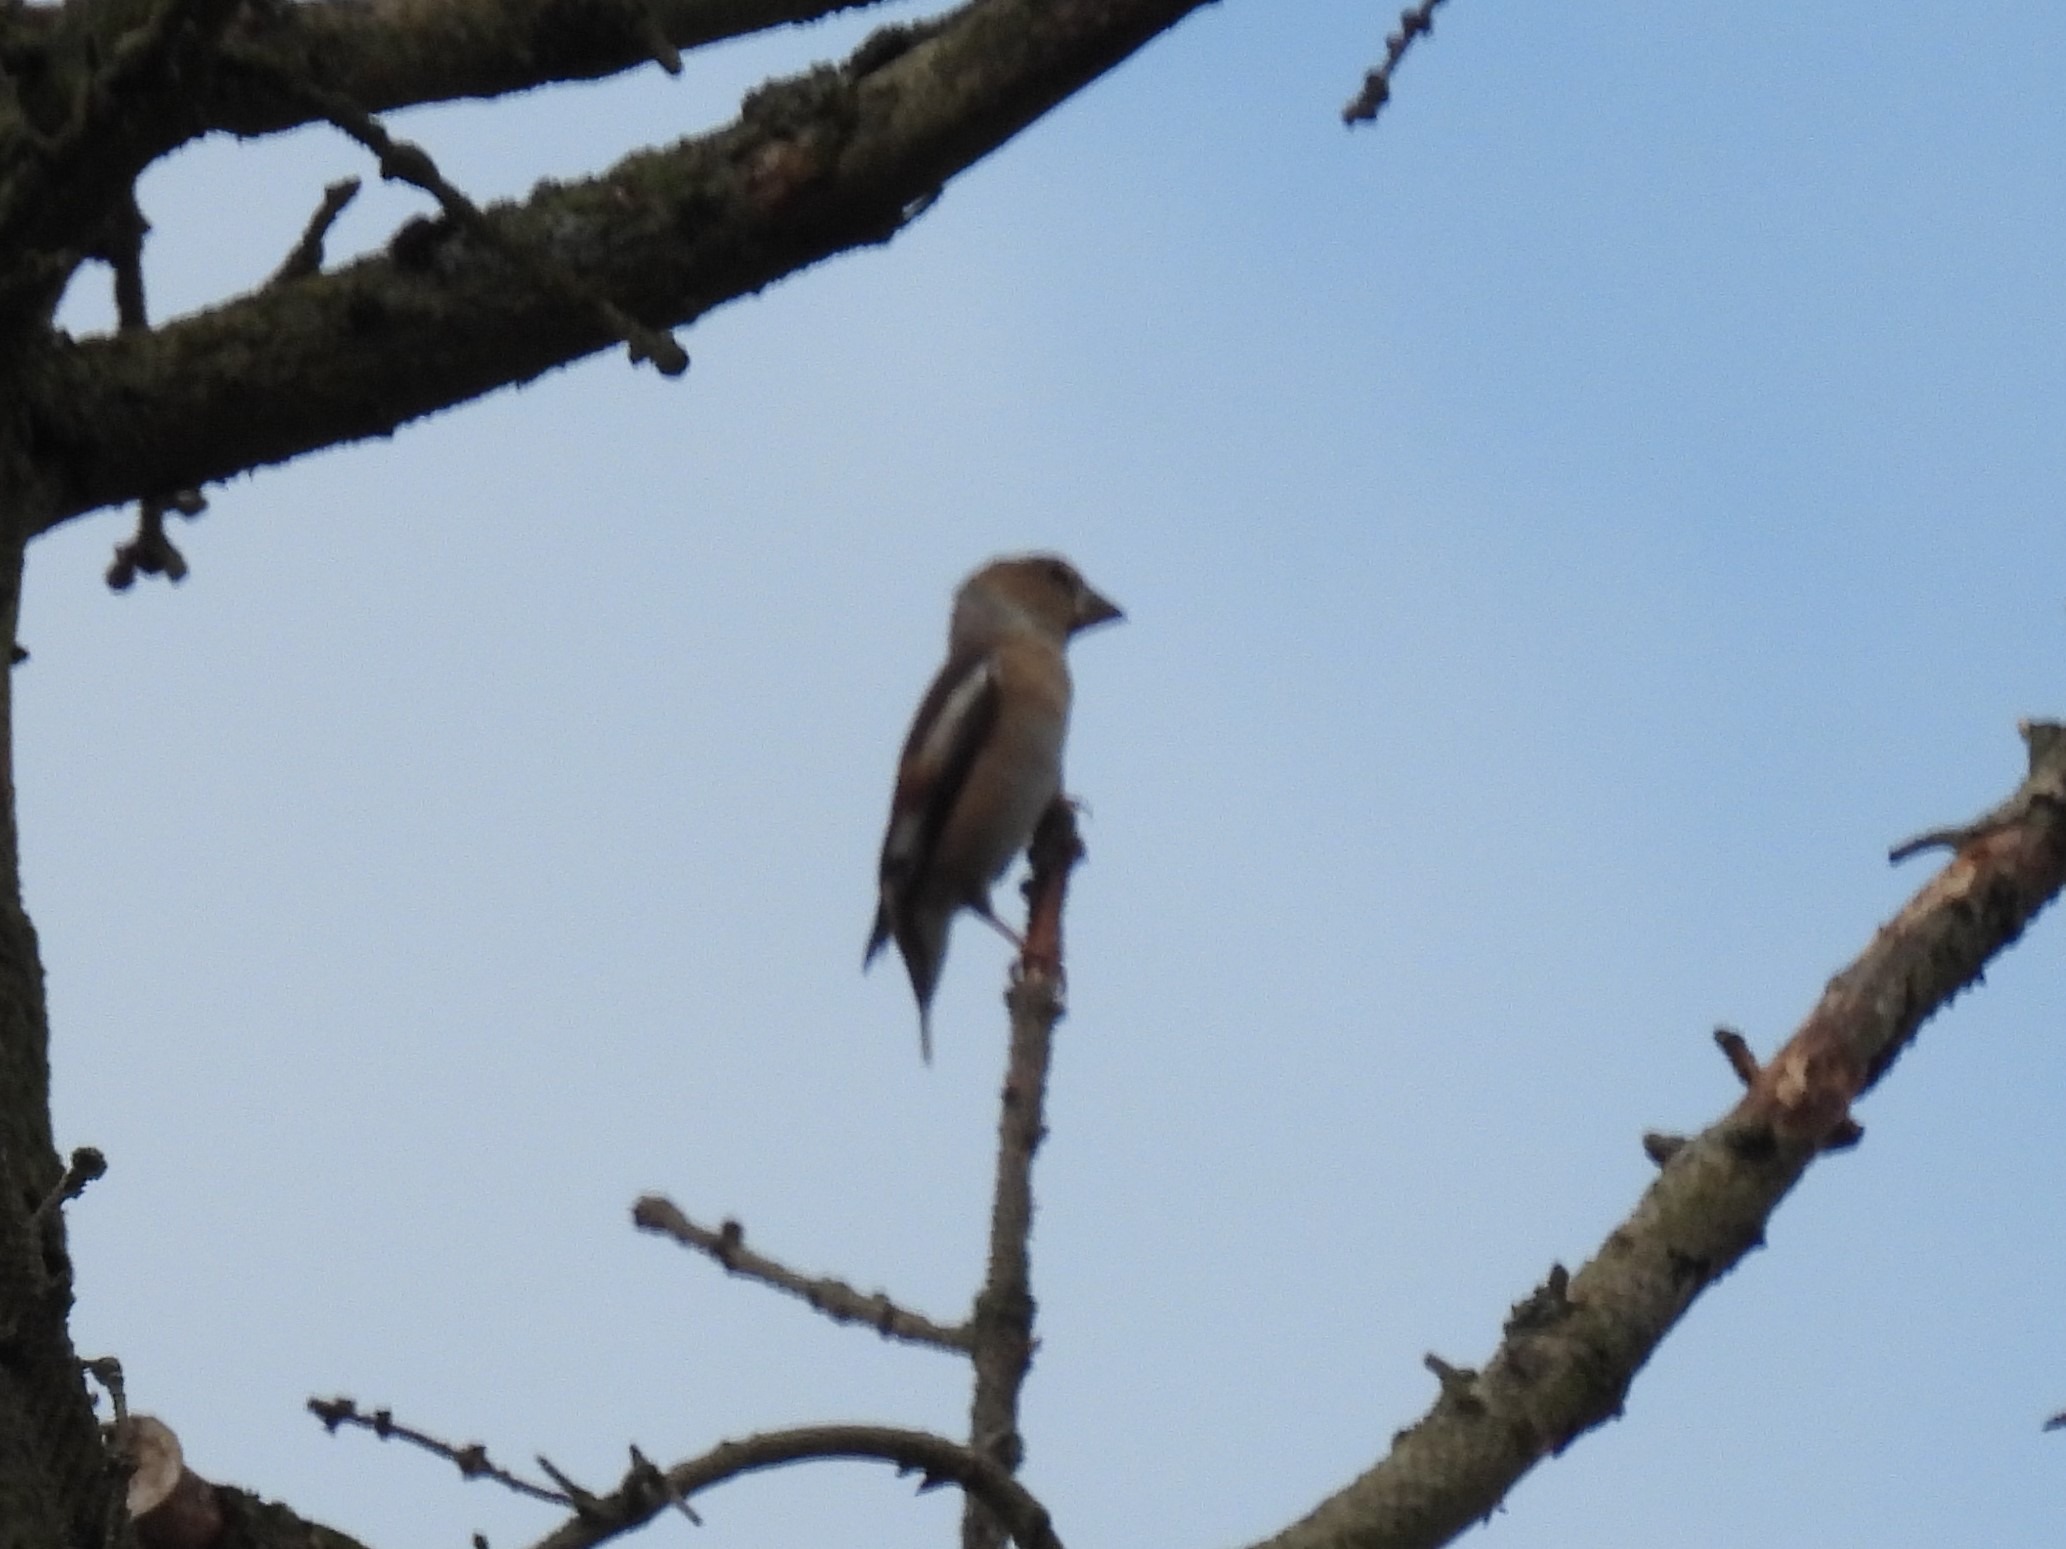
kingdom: Animalia
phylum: Chordata
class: Aves
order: Passeriformes
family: Fringillidae
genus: Coccothraustes
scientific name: Coccothraustes coccothraustes
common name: Kernebider
